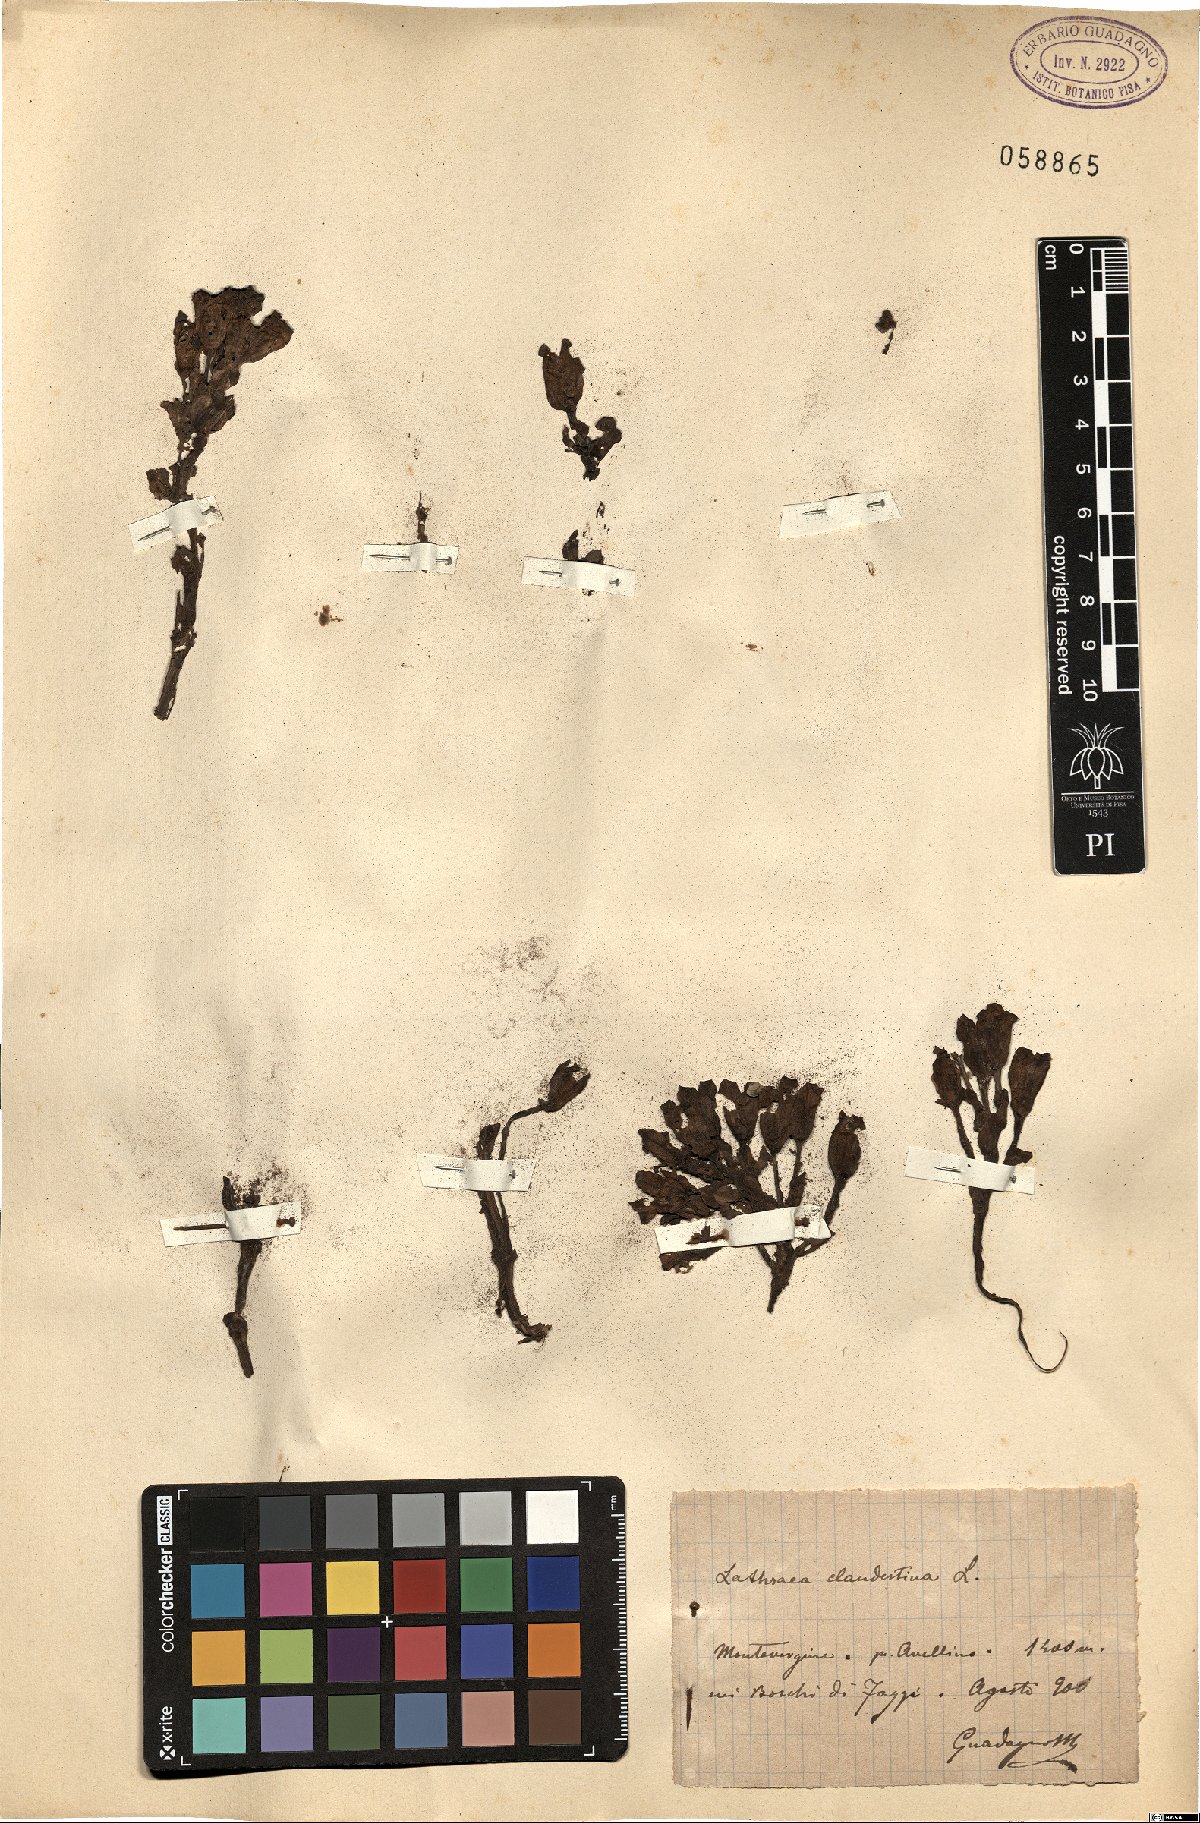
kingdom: Plantae
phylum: Tracheophyta
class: Magnoliopsida
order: Lamiales
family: Orobanchaceae
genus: Lathraea
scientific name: Lathraea clandestina
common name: Purple toothwort
